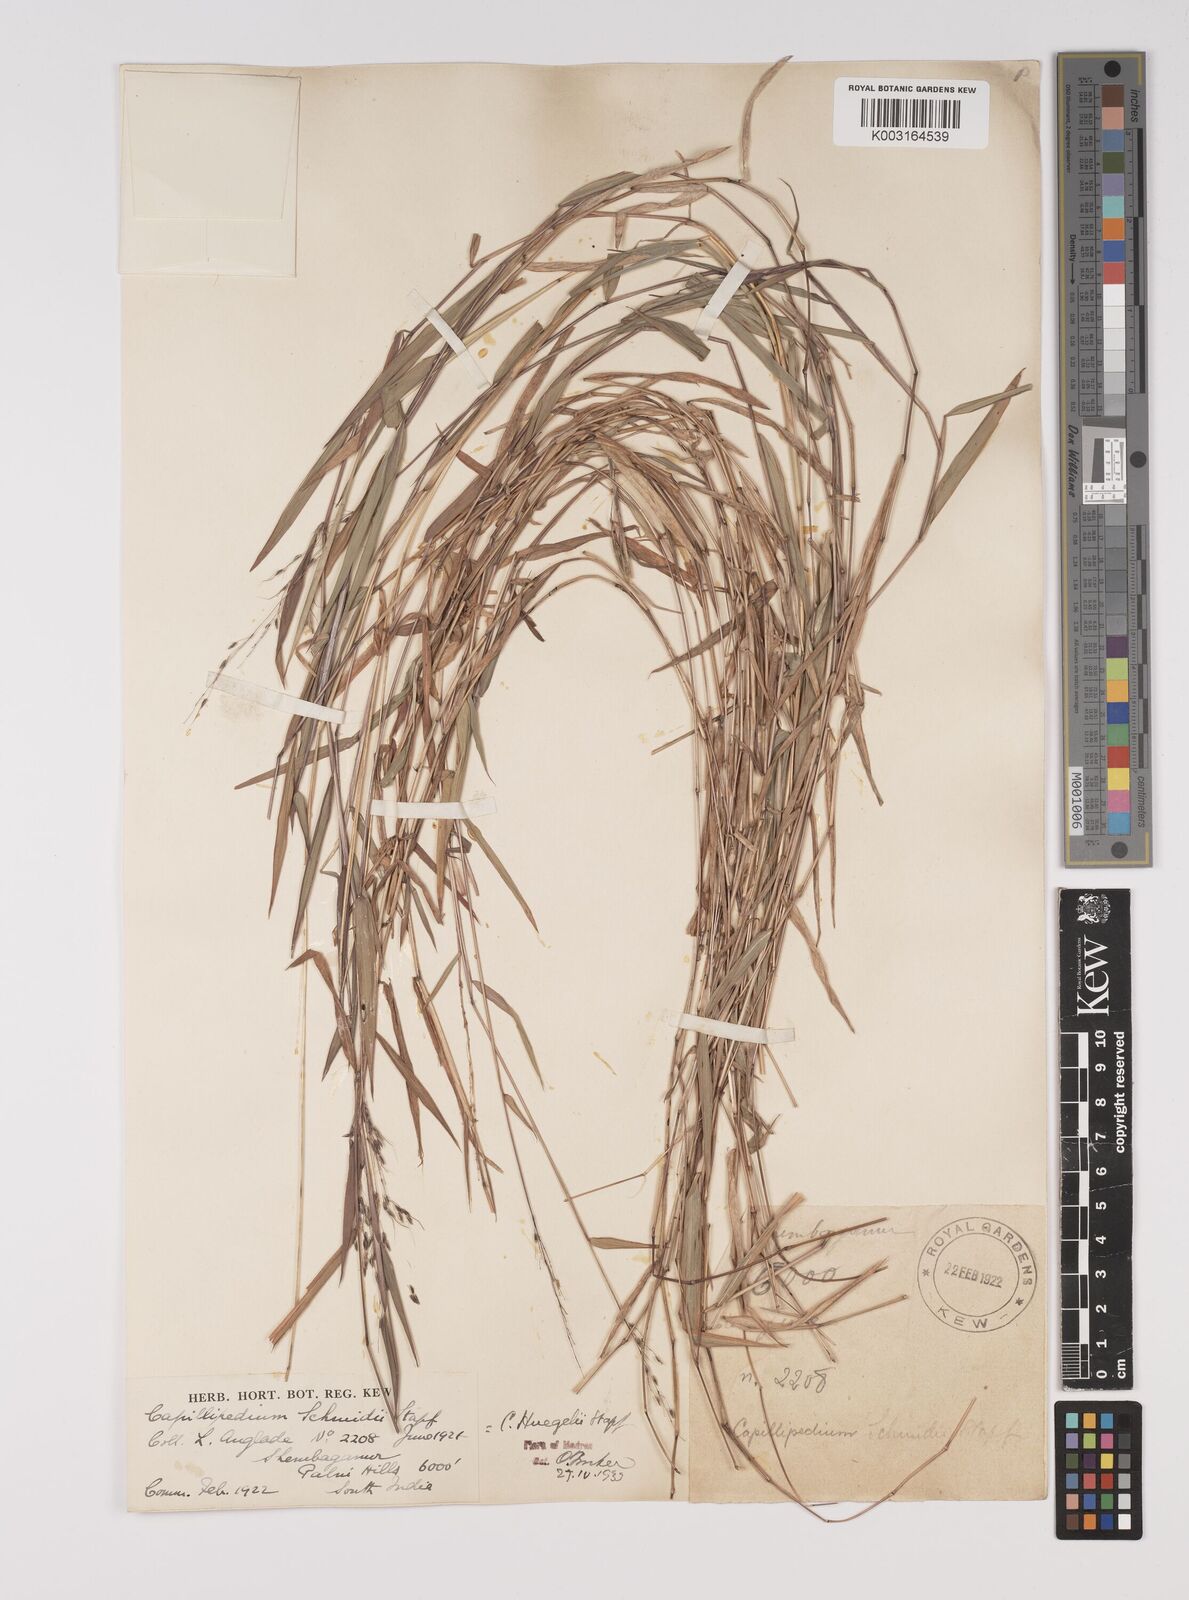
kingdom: Plantae
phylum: Tracheophyta
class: Liliopsida
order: Poales
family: Poaceae
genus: Capillipedium
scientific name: Capillipedium huegelii
